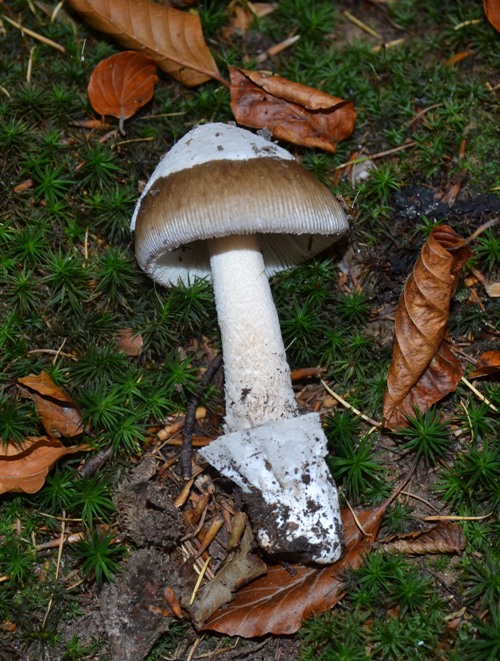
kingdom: Fungi
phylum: Basidiomycota
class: Agaricomycetes
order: Agaricales
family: Amanitaceae
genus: Amanita
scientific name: Amanita submembranacea
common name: gråspættet kam-fluesvamp
